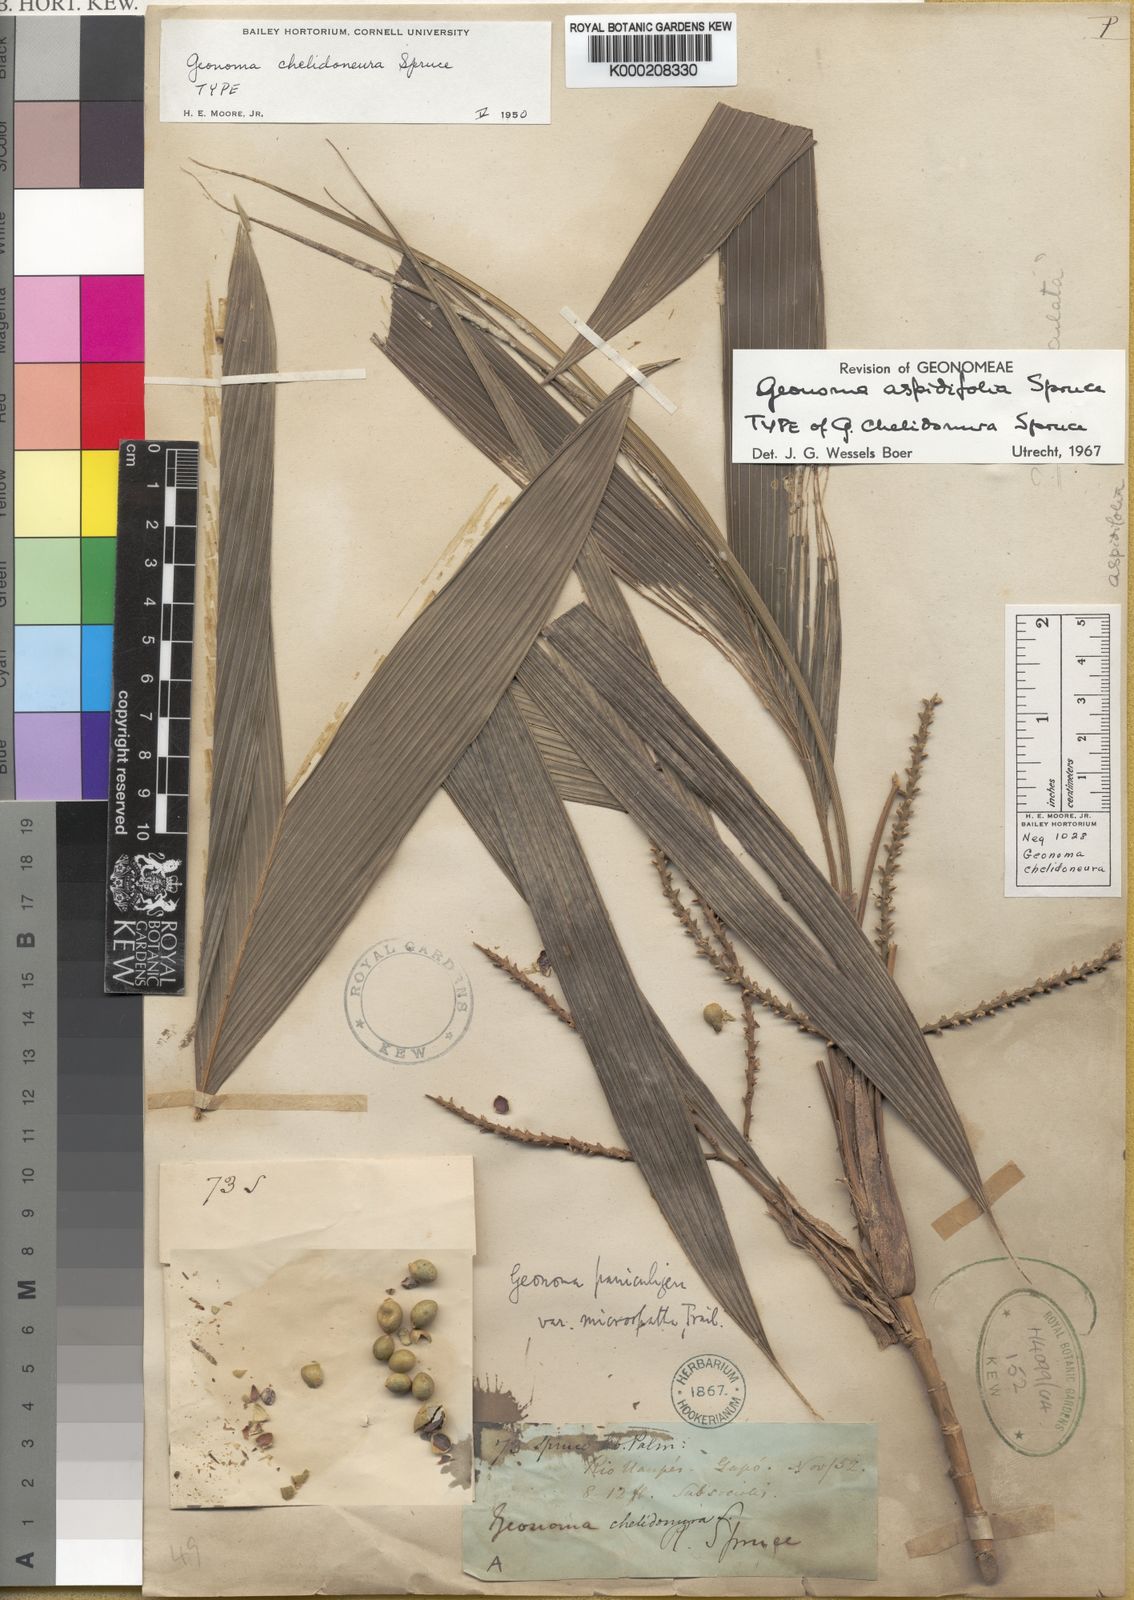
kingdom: Plantae
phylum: Tracheophyta
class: Liliopsida
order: Arecales
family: Arecaceae
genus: Geonoma
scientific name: Geonoma aspidiifolia
